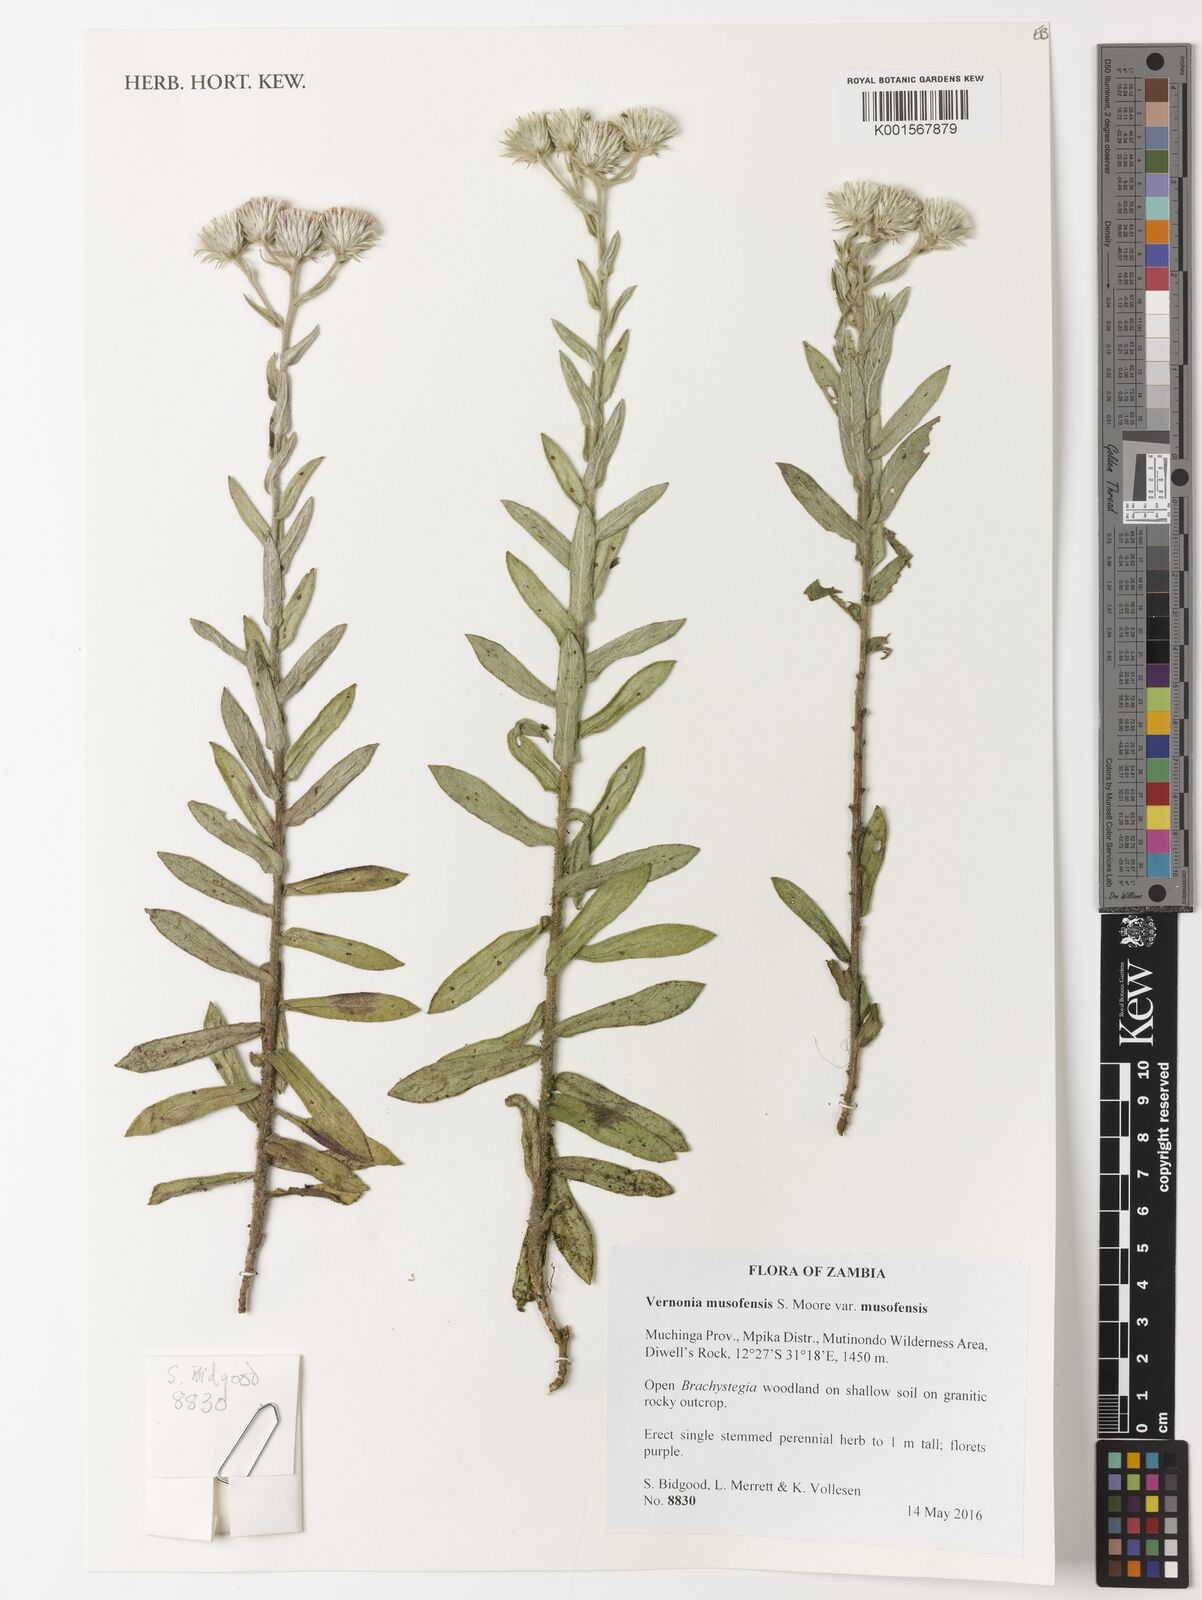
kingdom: Plantae
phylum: Tracheophyta
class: Magnoliopsida
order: Asterales
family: Asteraceae
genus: Vernoniastrum
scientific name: Vernoniastrum musofense
